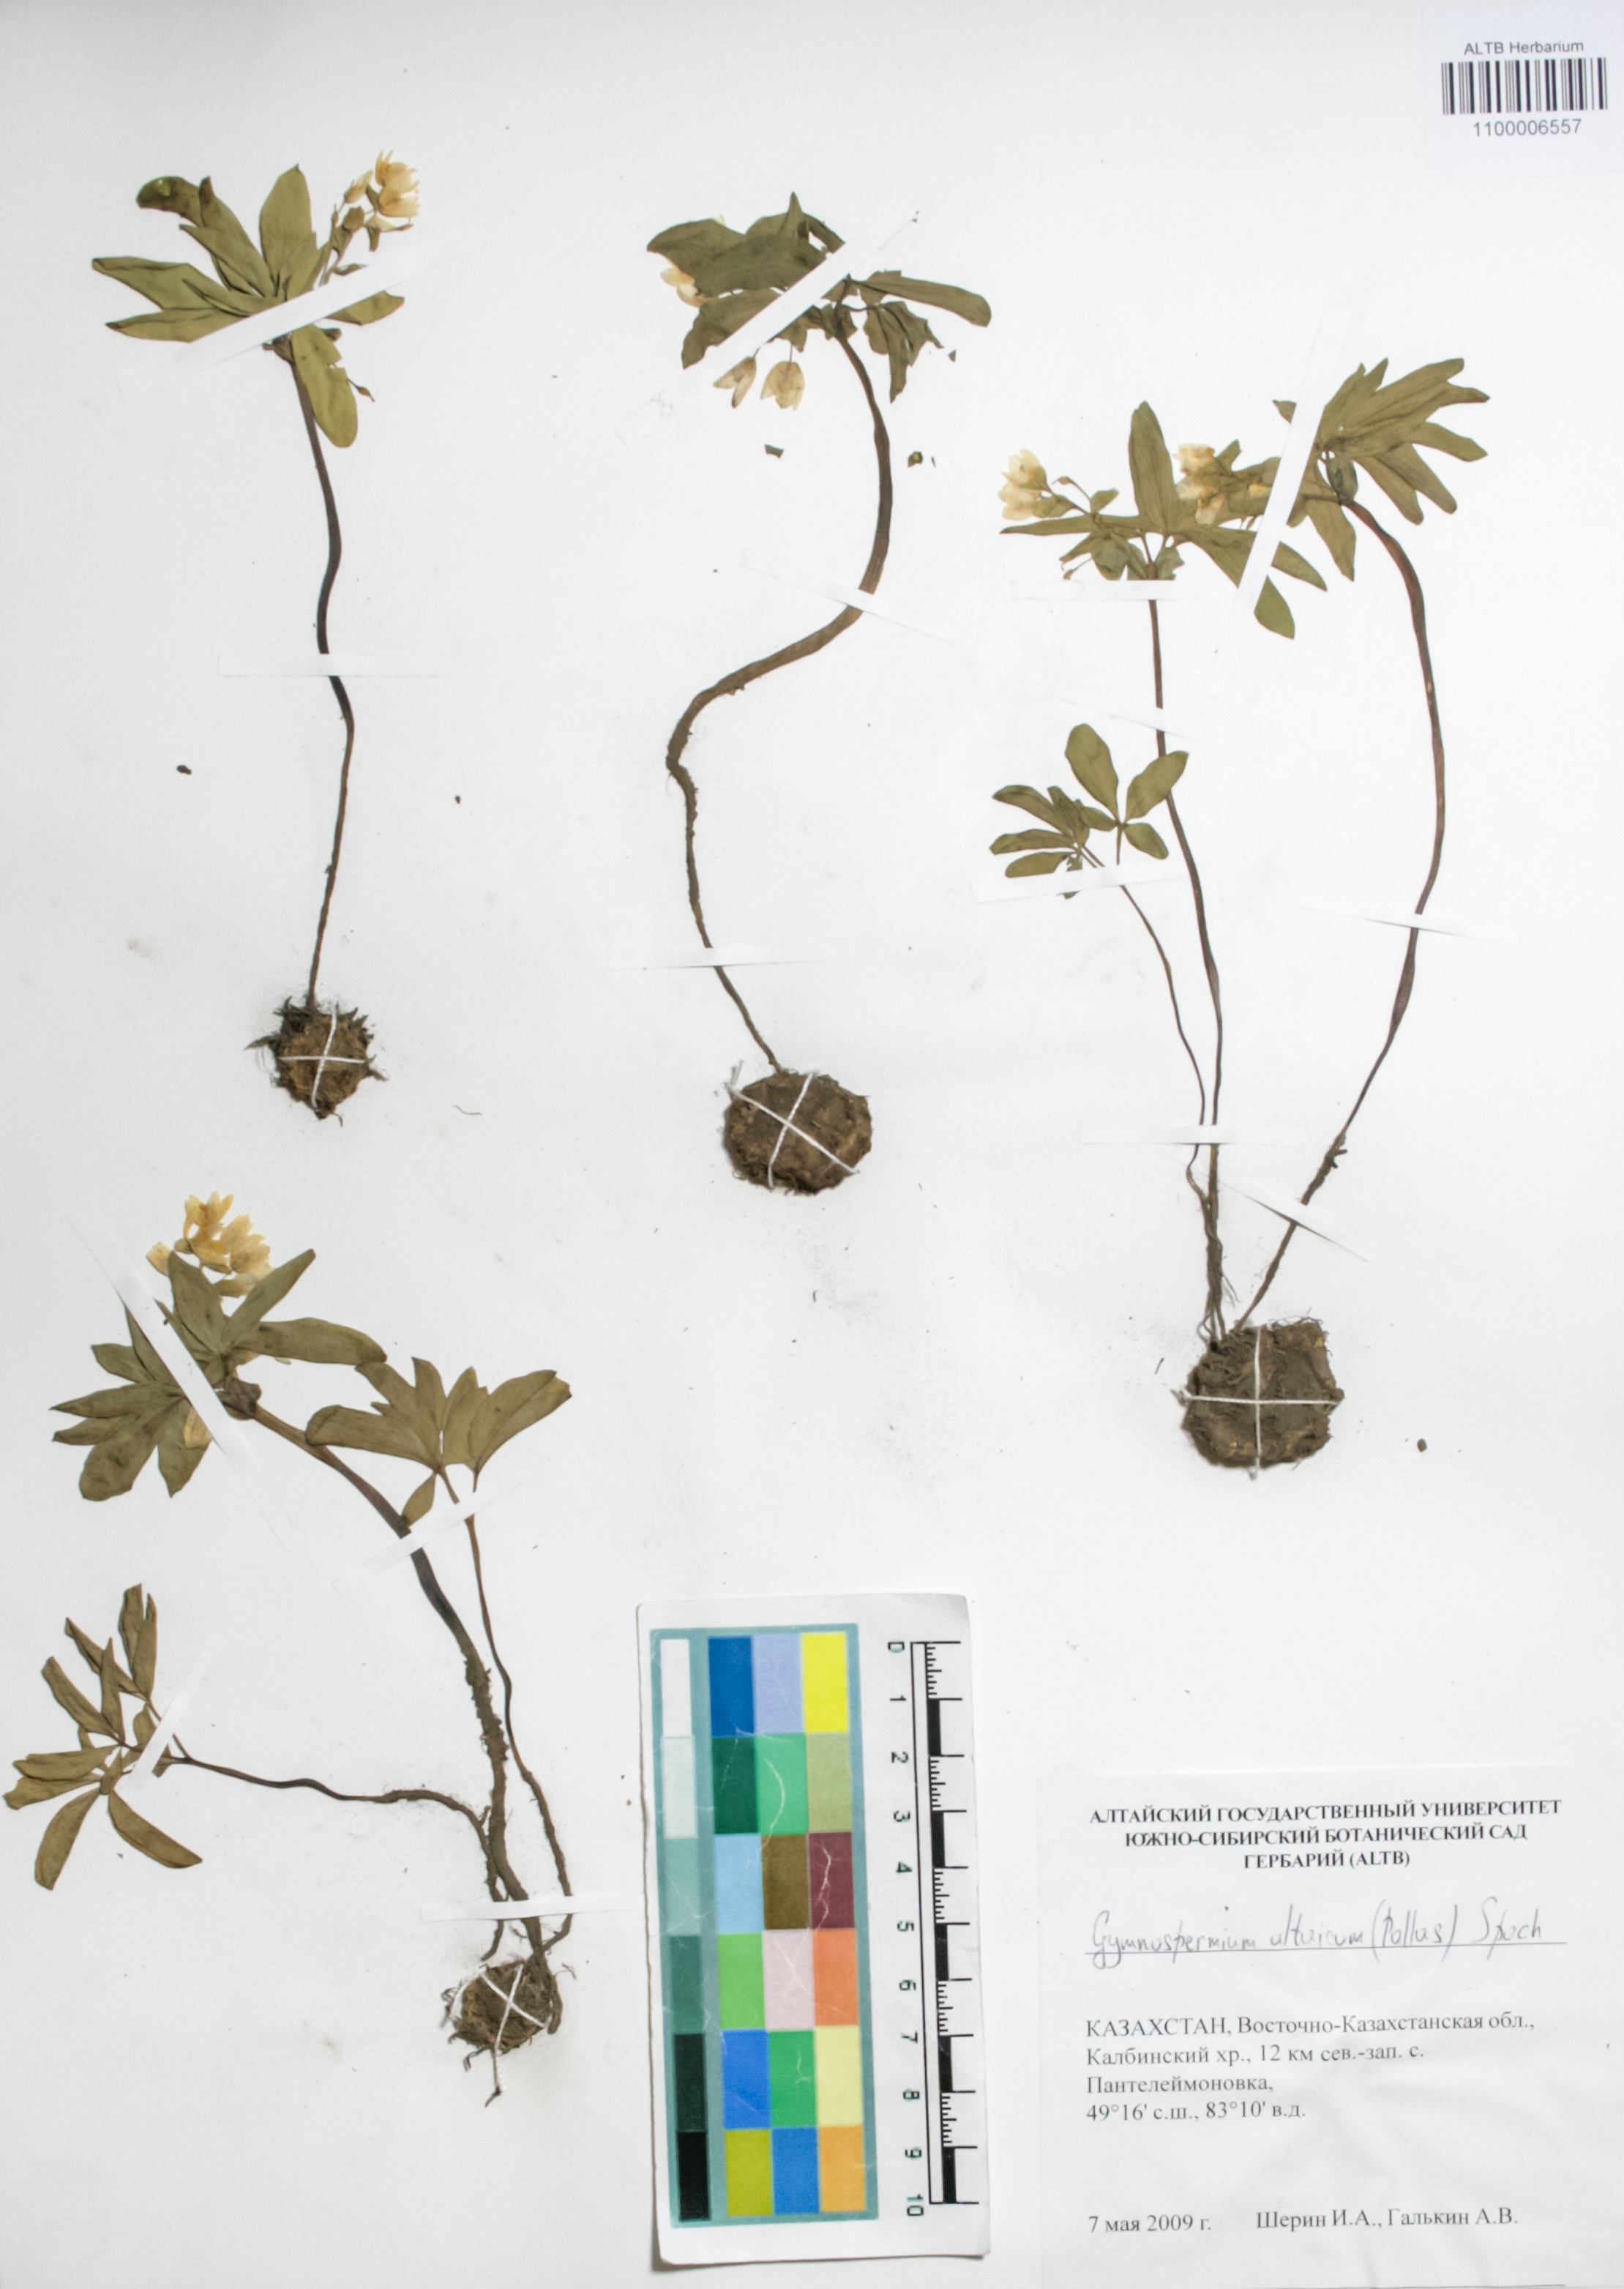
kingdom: Plantae
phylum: Tracheophyta
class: Magnoliopsida
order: Ranunculales
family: Berberidaceae
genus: Gymnospermium
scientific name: Gymnospermium altaicum
